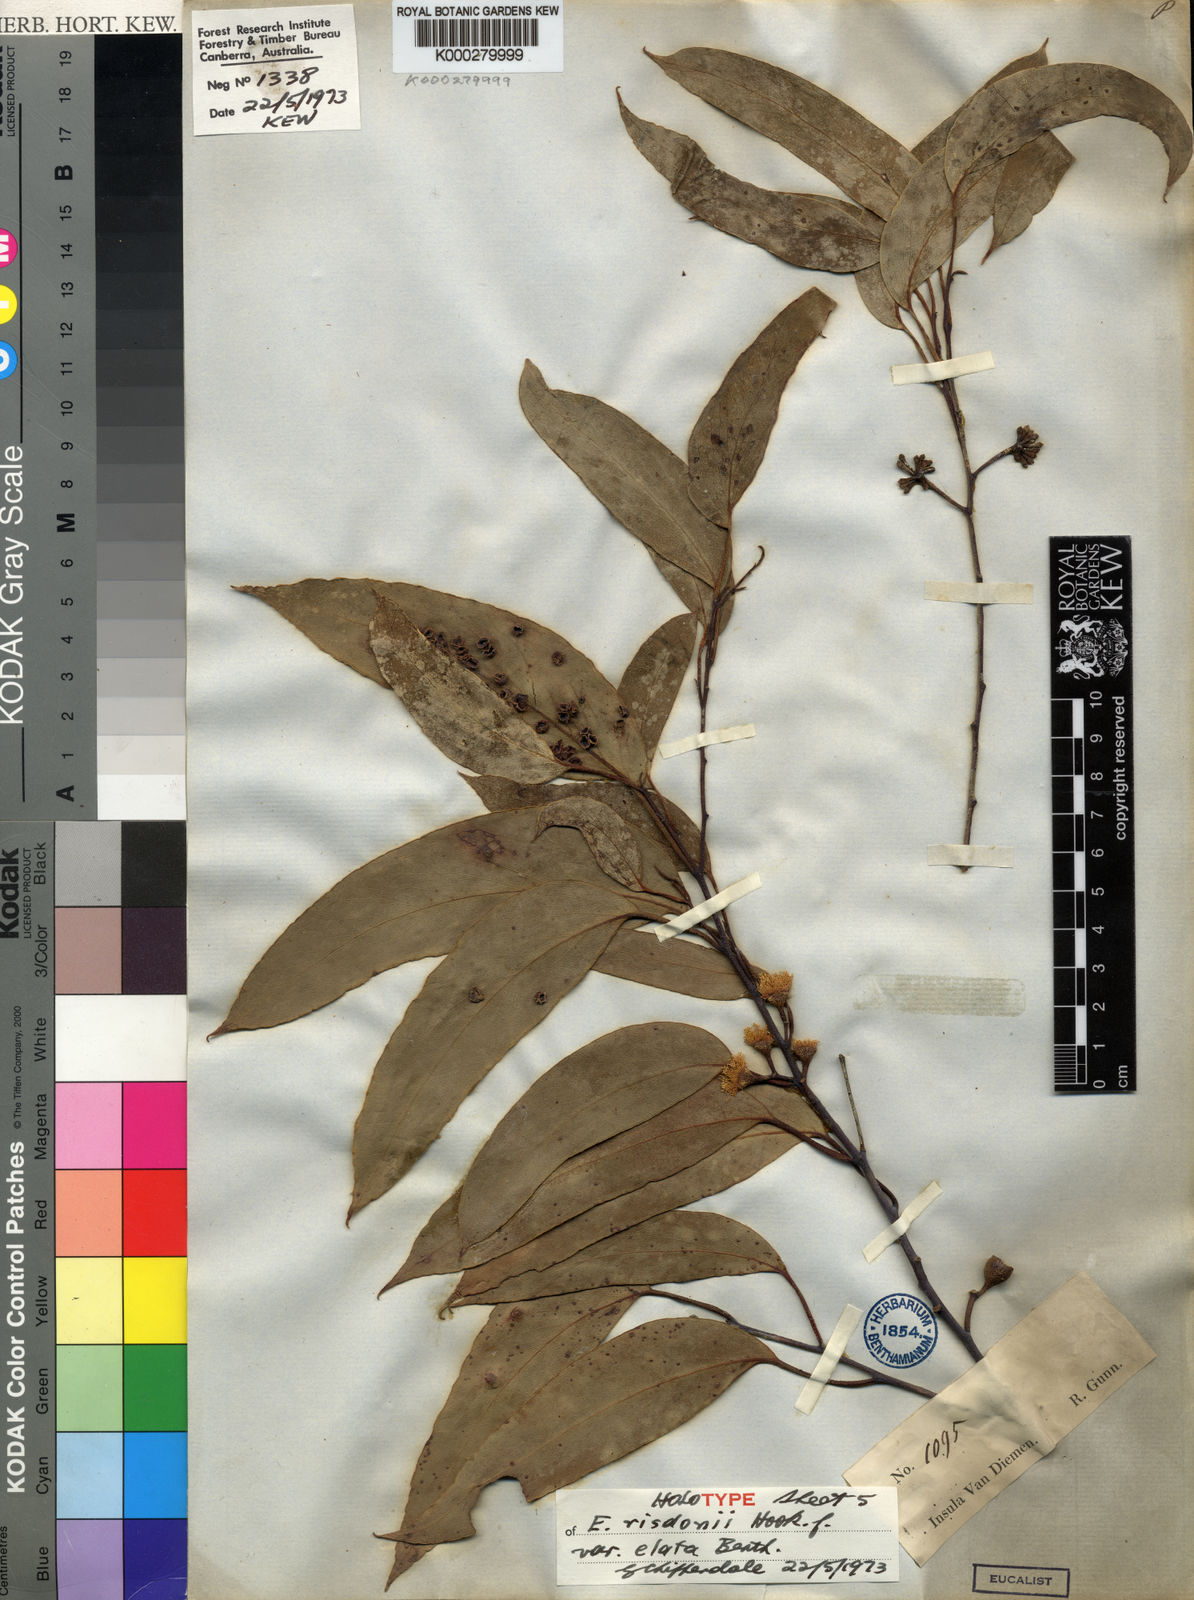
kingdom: Plantae
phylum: Tracheophyta
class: Magnoliopsida
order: Myrtales
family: Myrtaceae
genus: Eucalyptus
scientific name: Eucalyptus tenuiramis
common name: Silver peppermint
